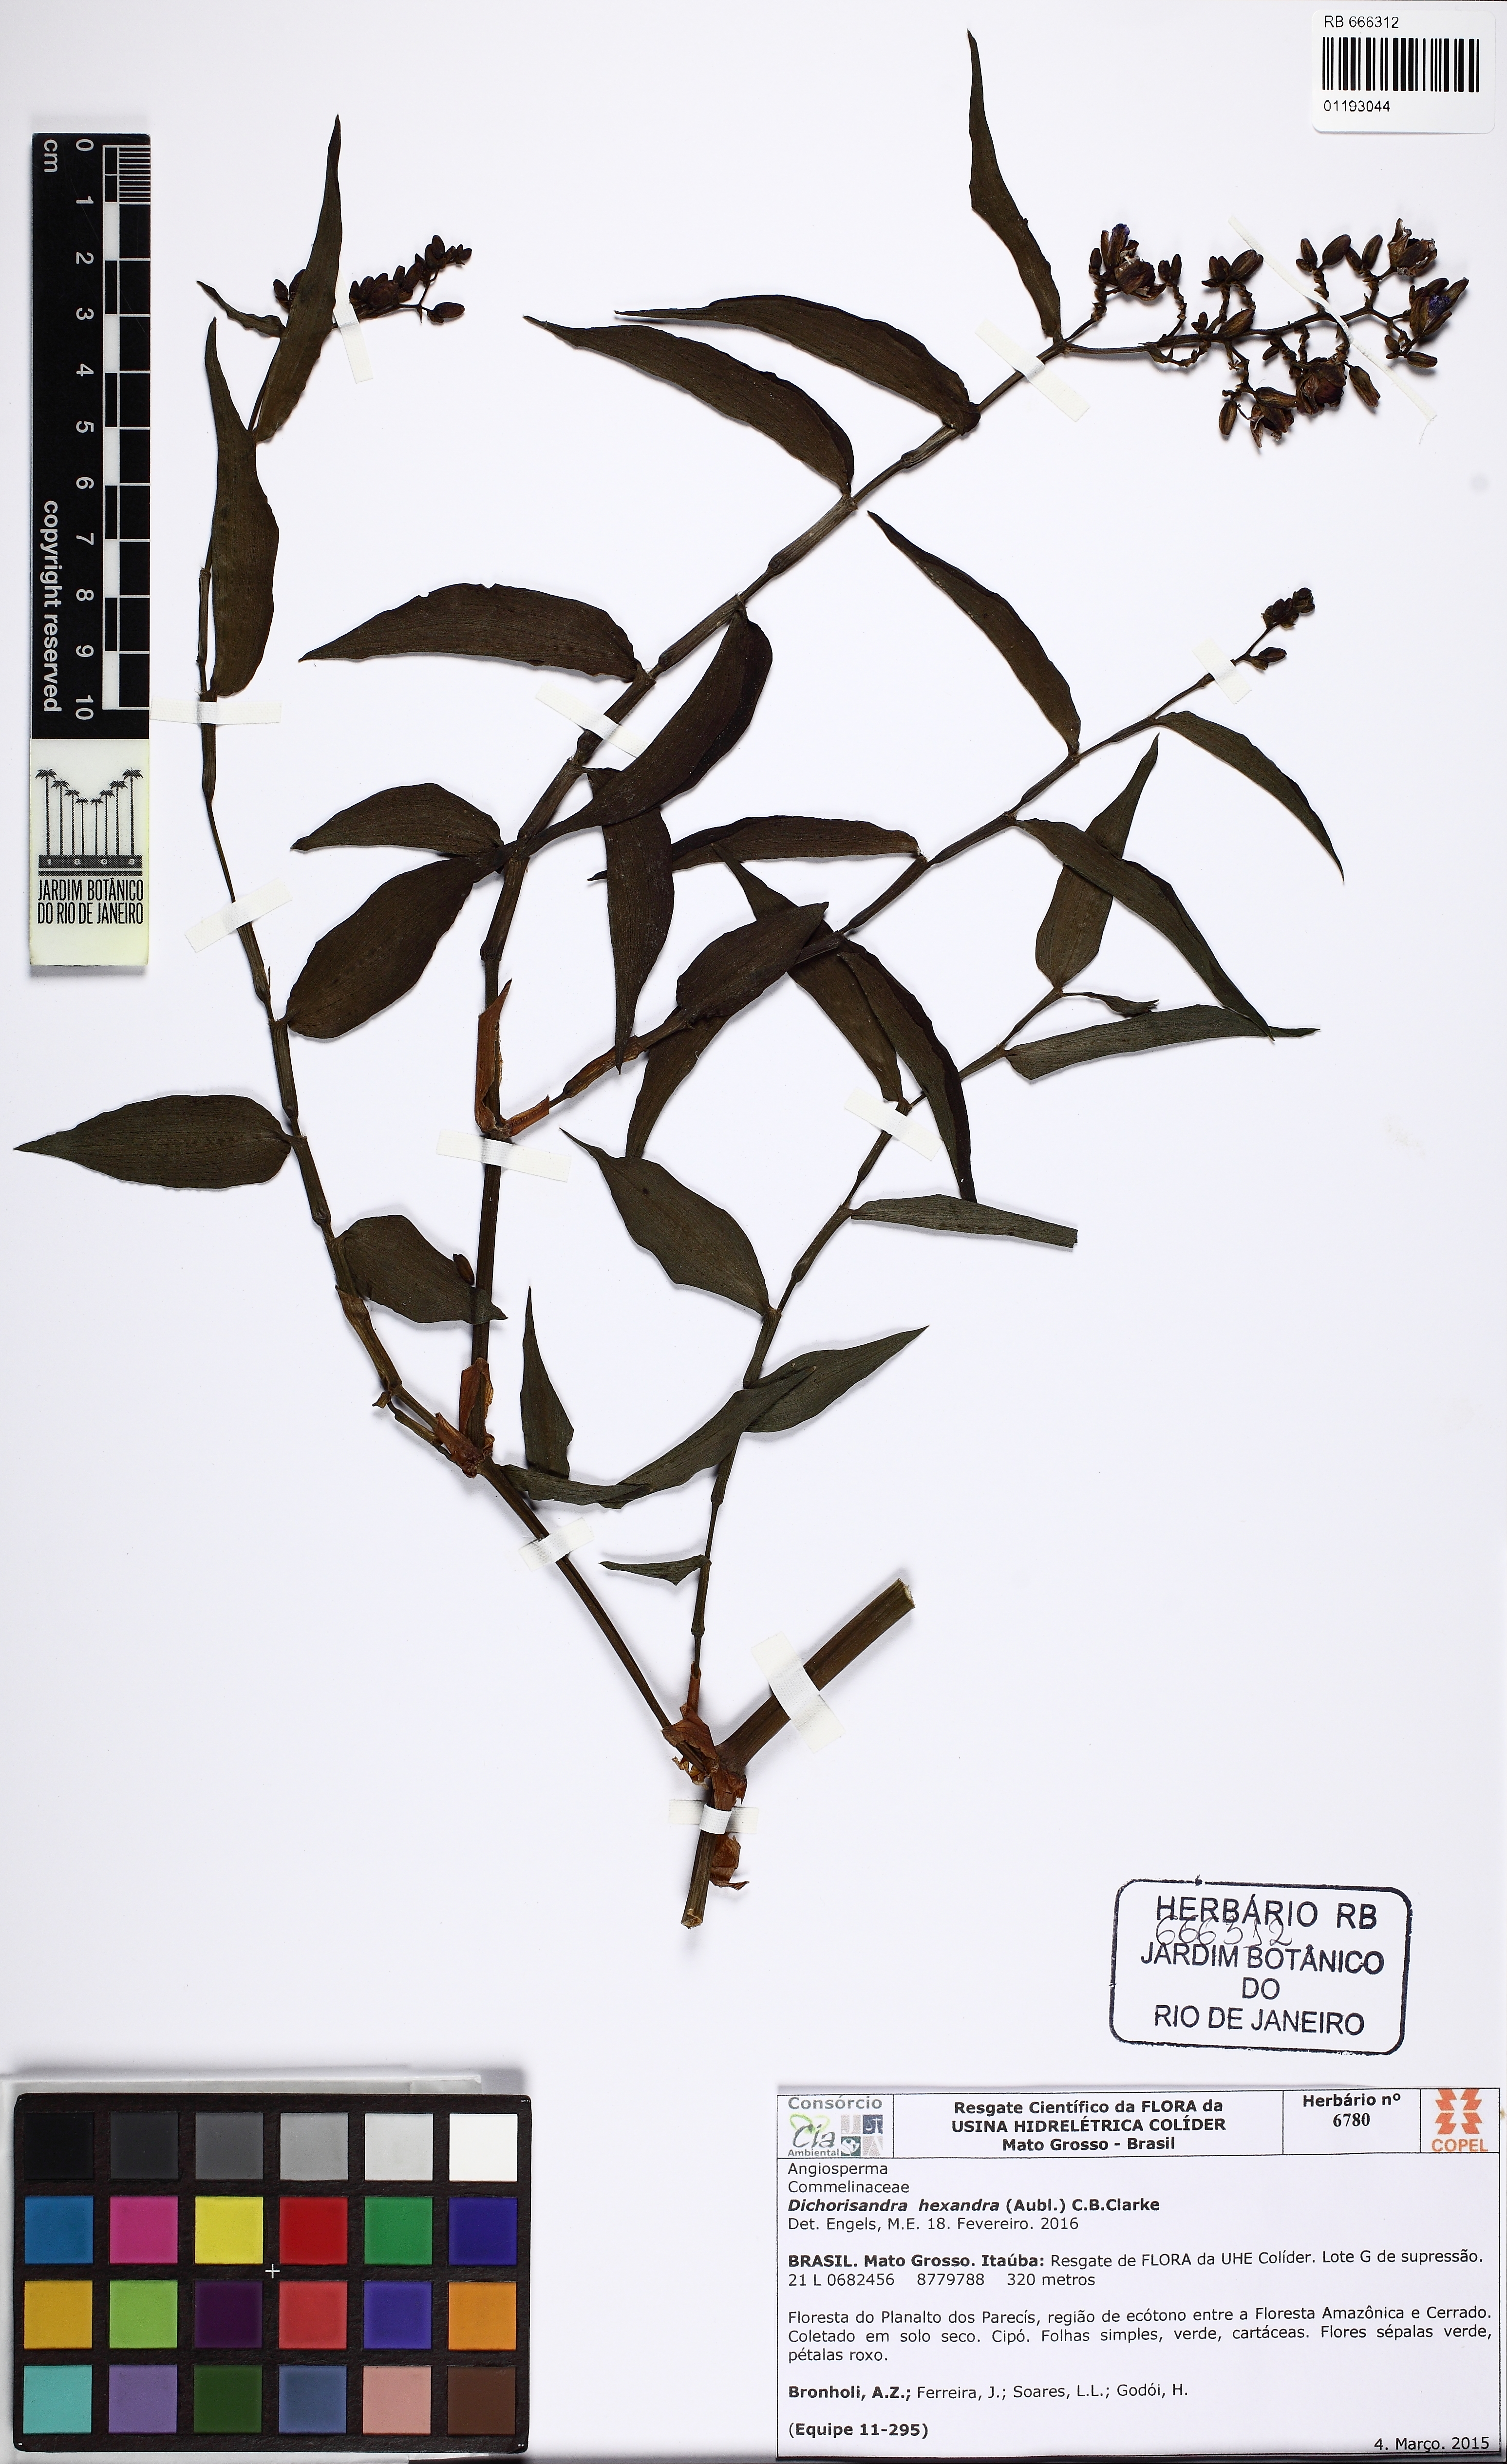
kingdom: Plantae
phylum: Tracheophyta
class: Liliopsida
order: Commelinales
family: Commelinaceae
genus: Dichorisandra
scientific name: Dichorisandra hexandra
